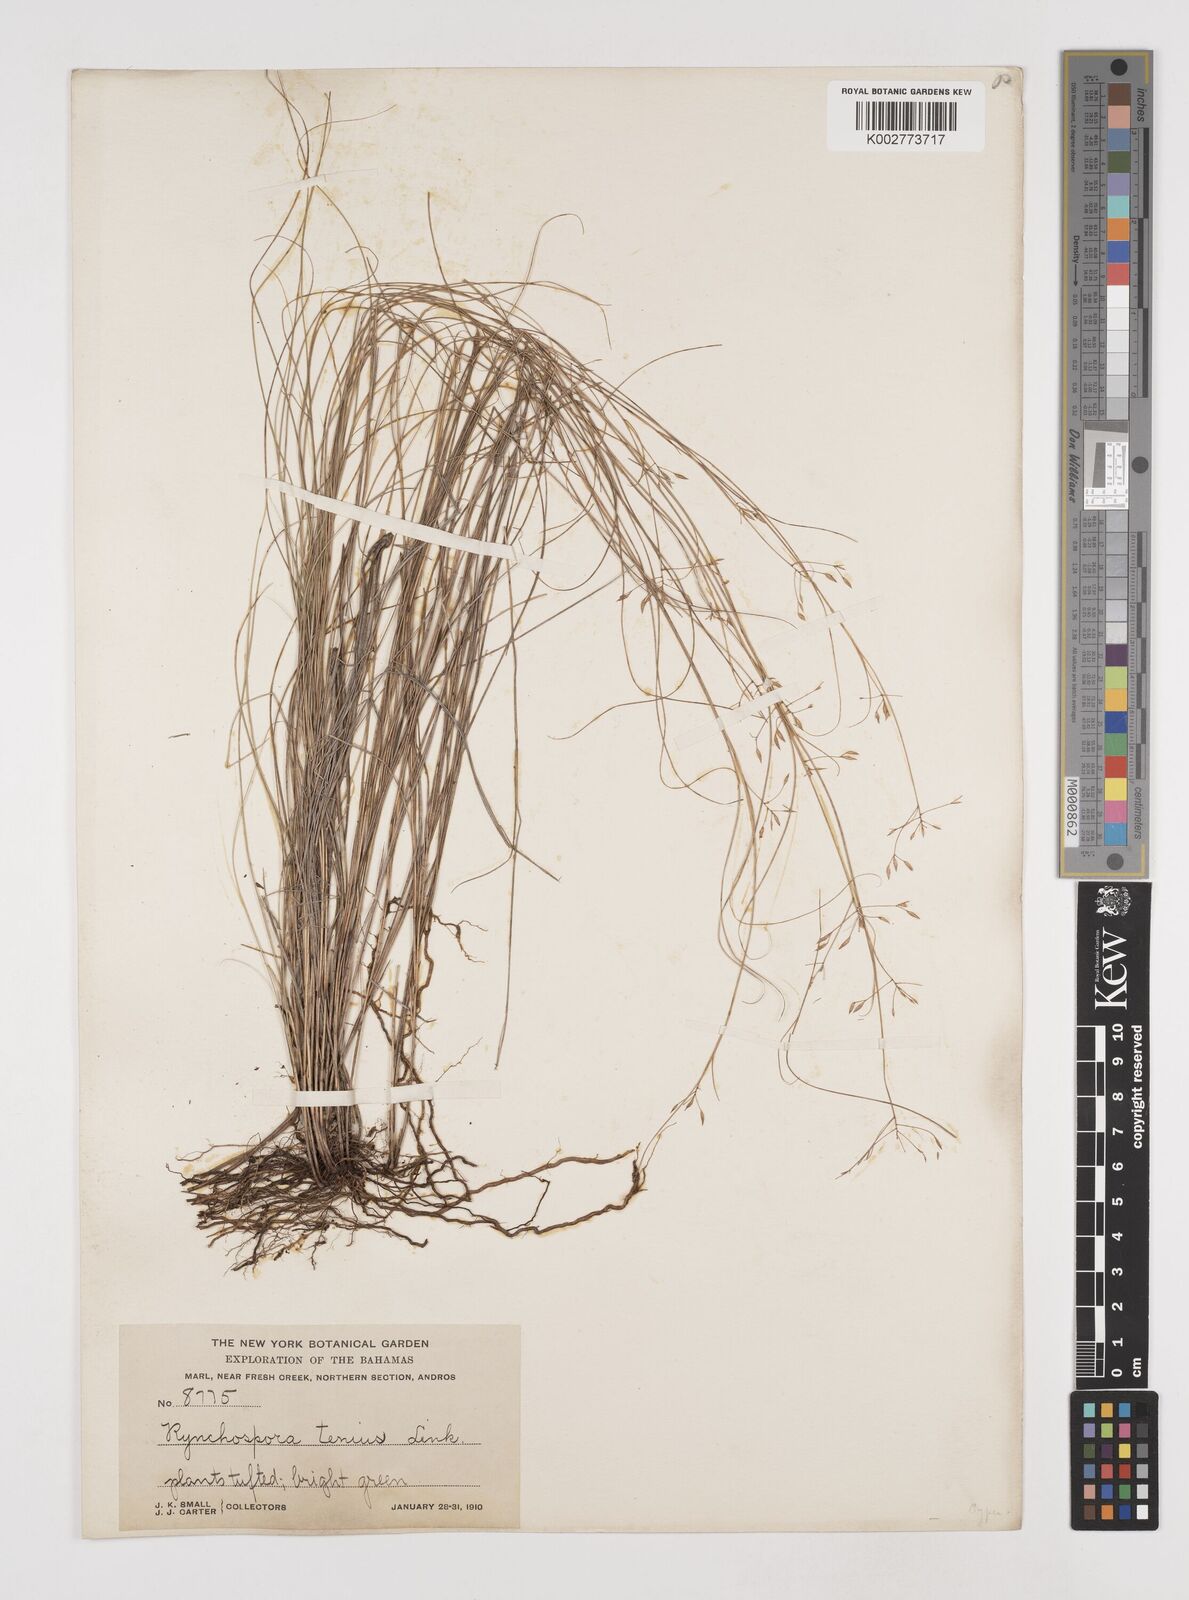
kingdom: Plantae
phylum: Tracheophyta
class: Liliopsida
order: Poales
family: Cyperaceae
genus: Rhynchospora
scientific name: Rhynchospora tenuis
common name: Quill beaksedge
